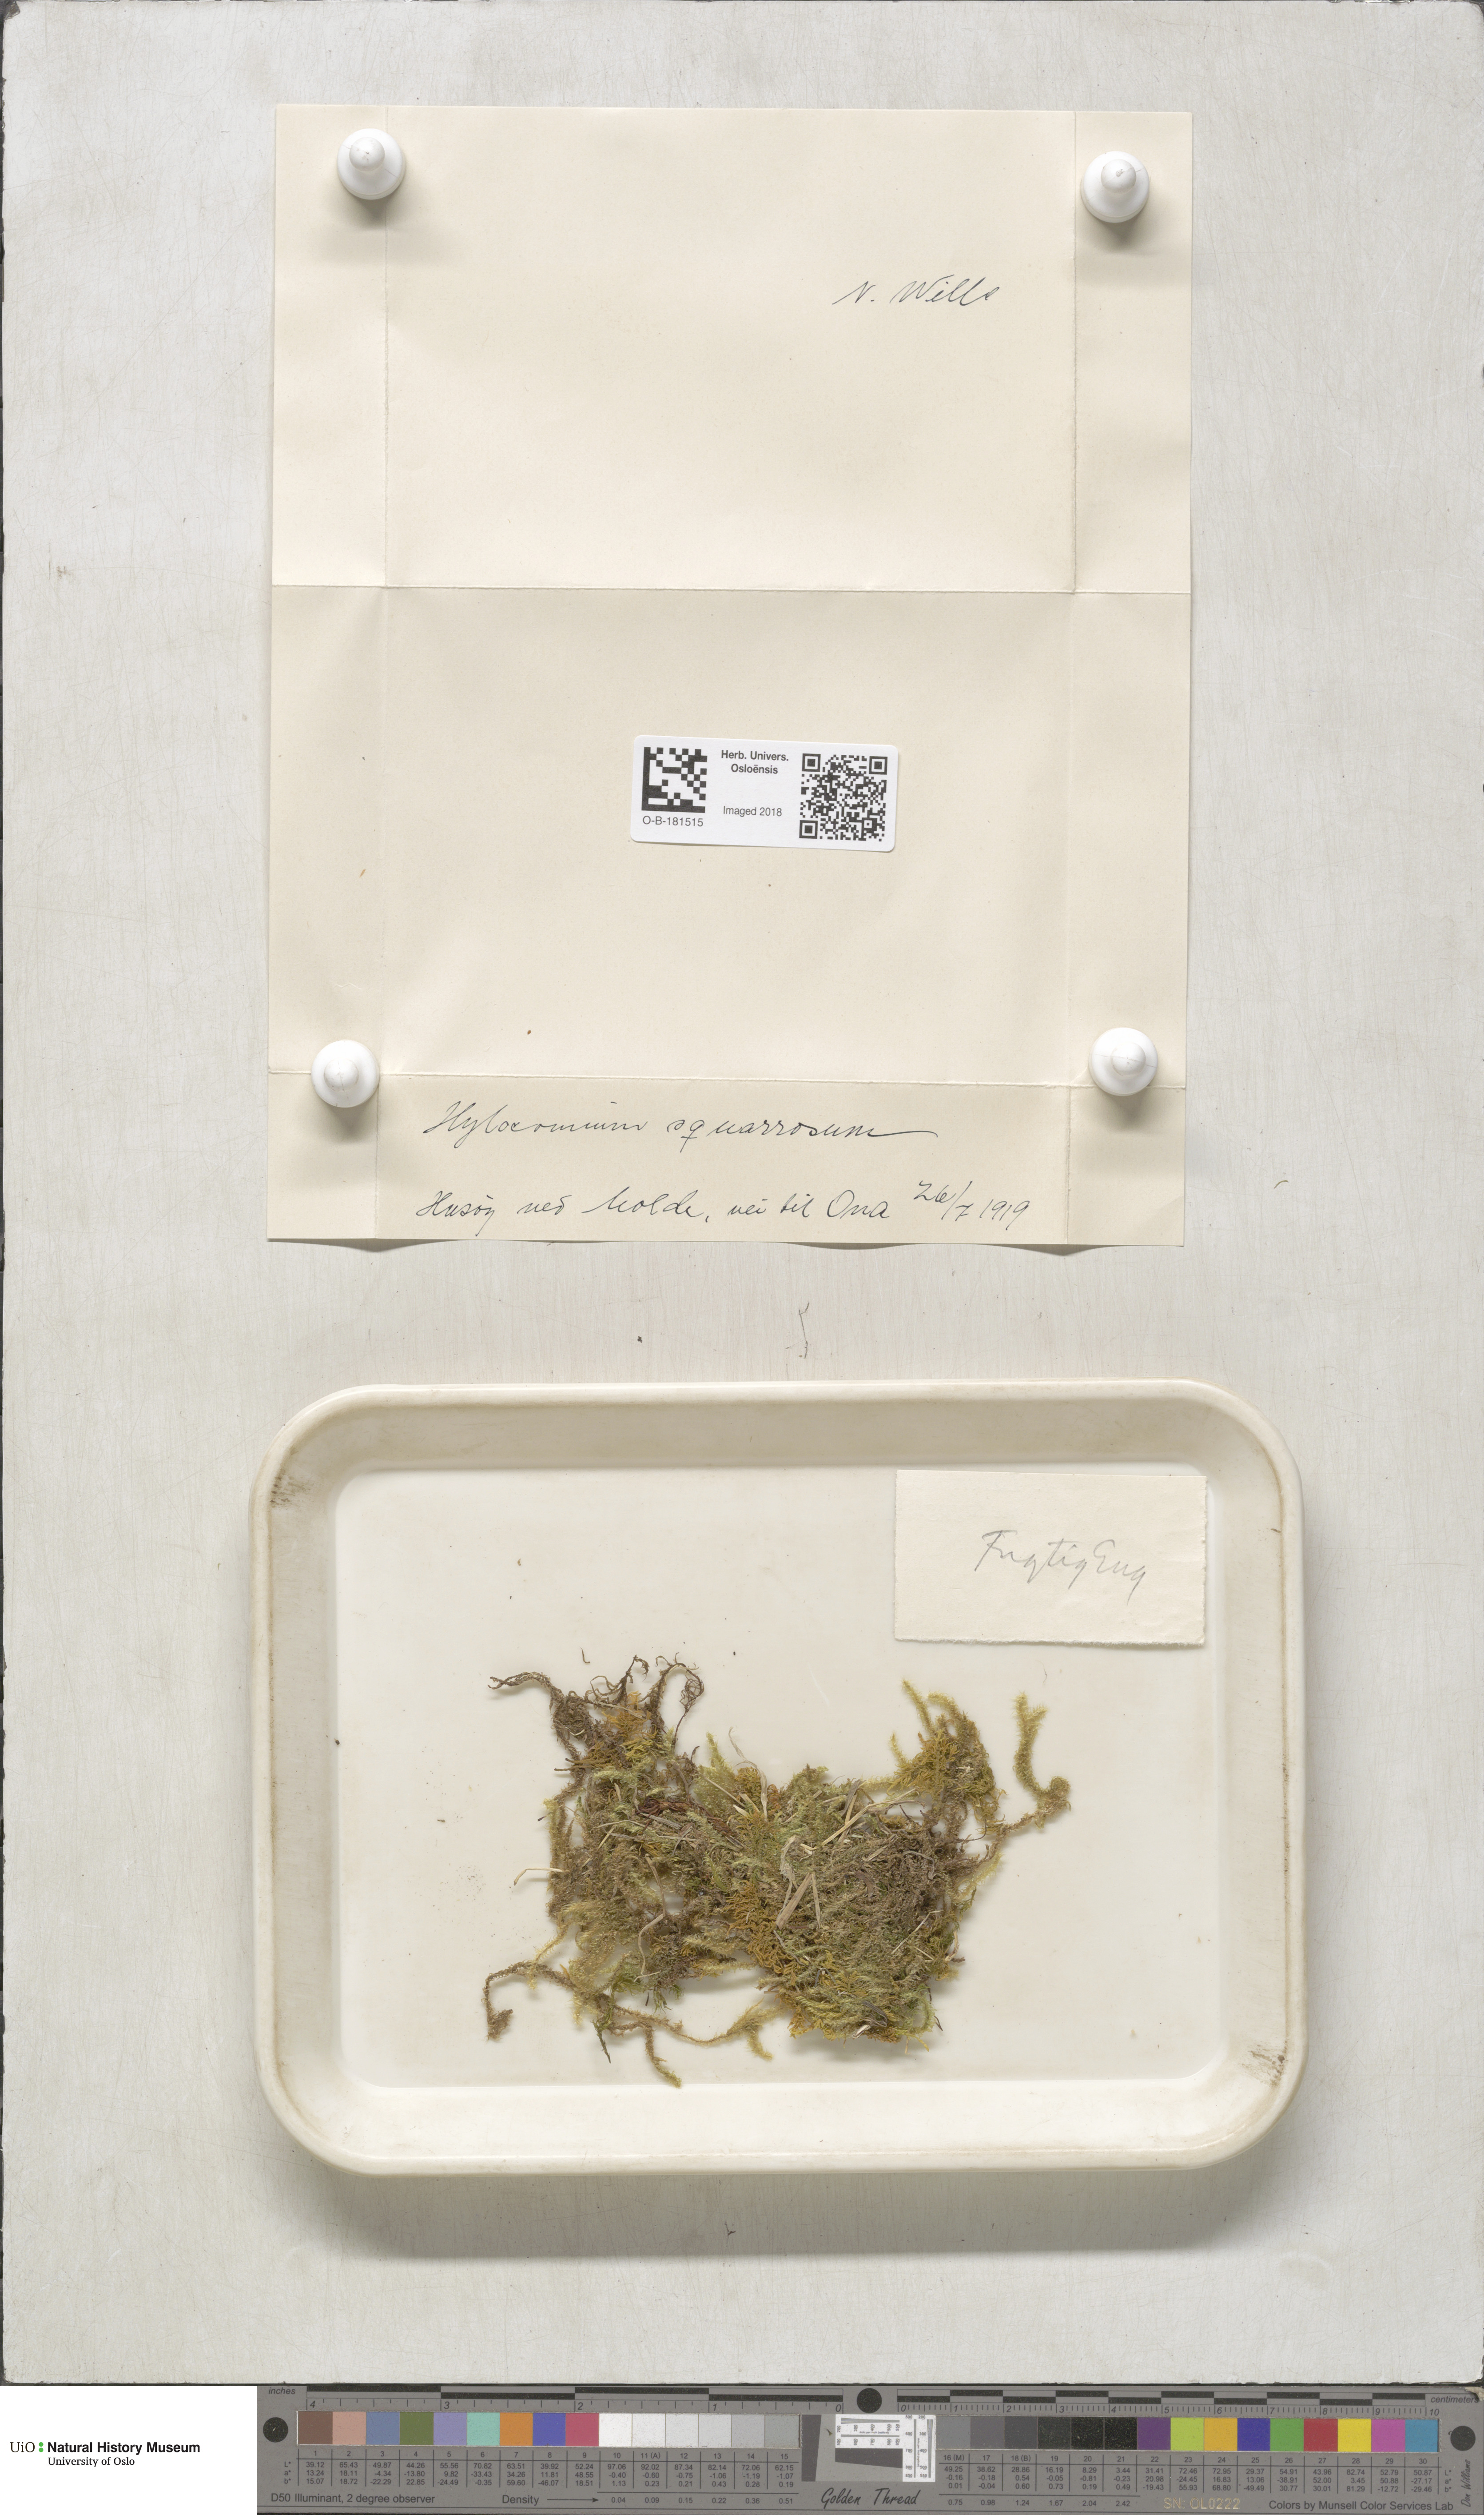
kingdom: Plantae
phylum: Bryophyta
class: Bryopsida
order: Hypnales
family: Hylocomiaceae
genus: Rhytidiadelphus
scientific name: Rhytidiadelphus squarrosus
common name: Springy turf-moss
